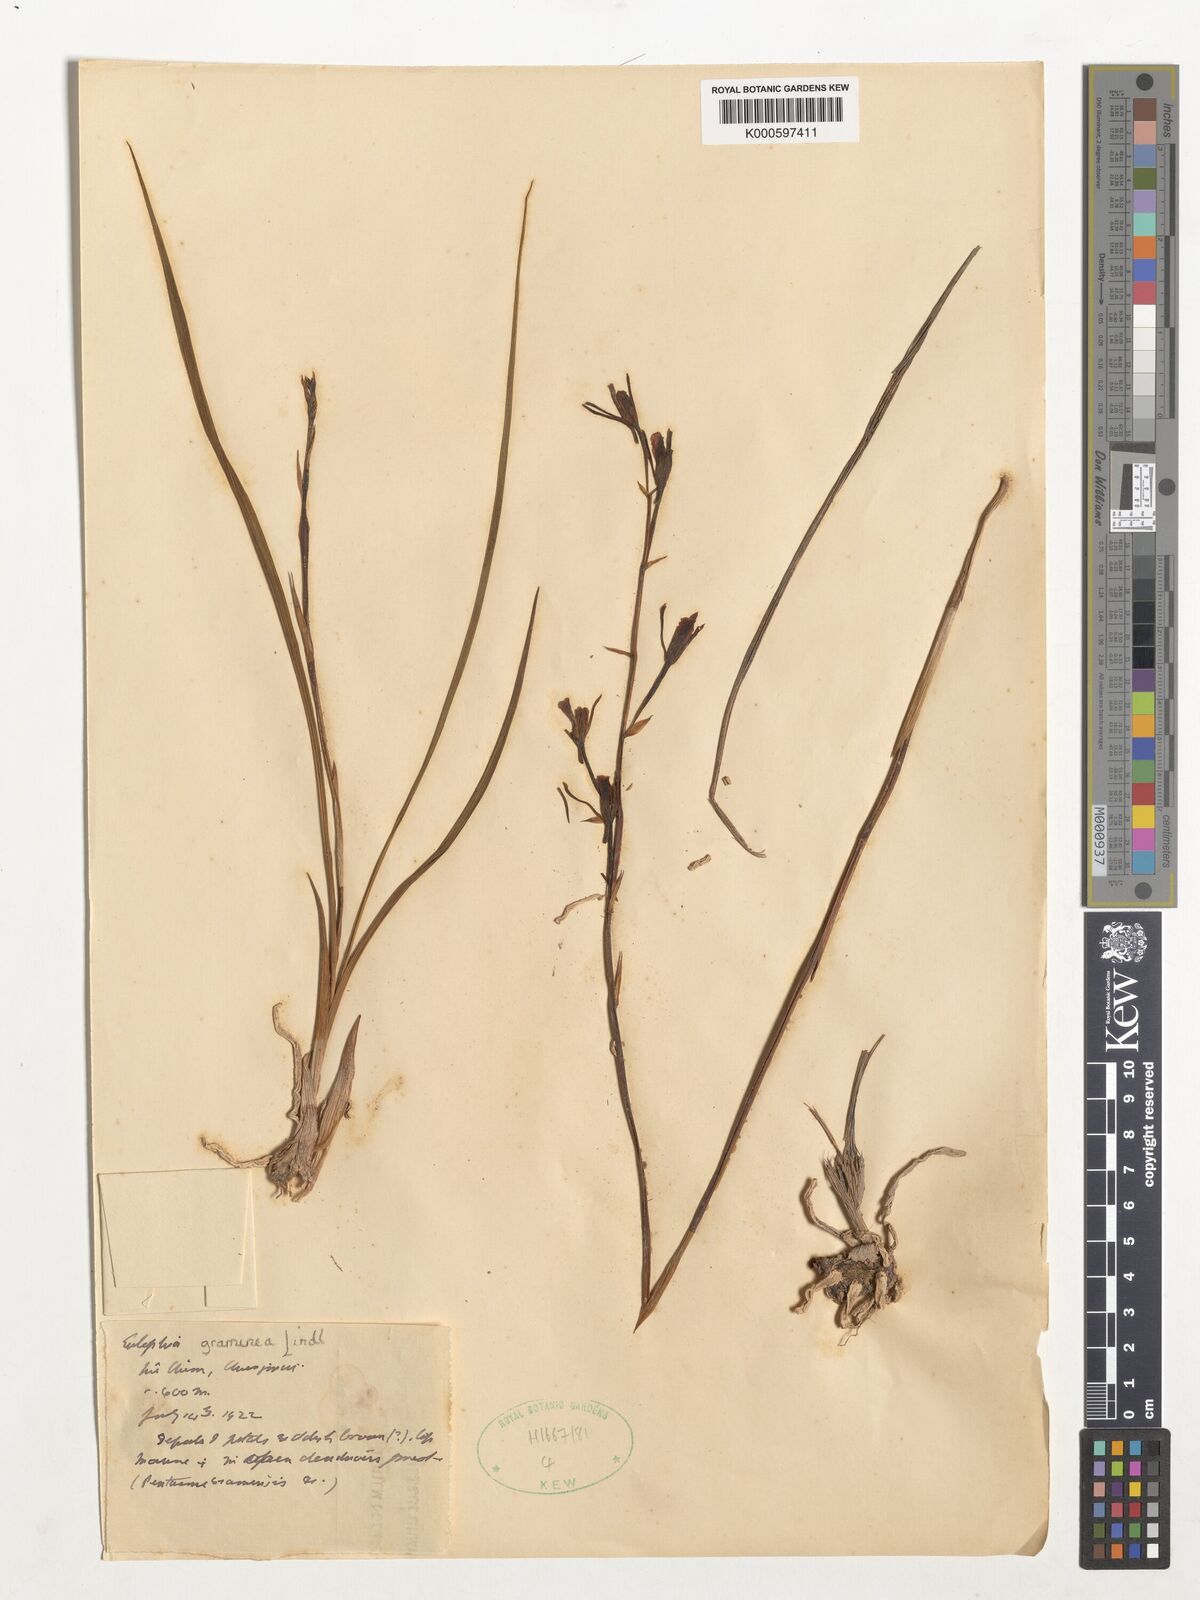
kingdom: Plantae
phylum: Tracheophyta
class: Liliopsida
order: Asparagales
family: Orchidaceae
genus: Eulophia
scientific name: Eulophia graminea
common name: Orchid
